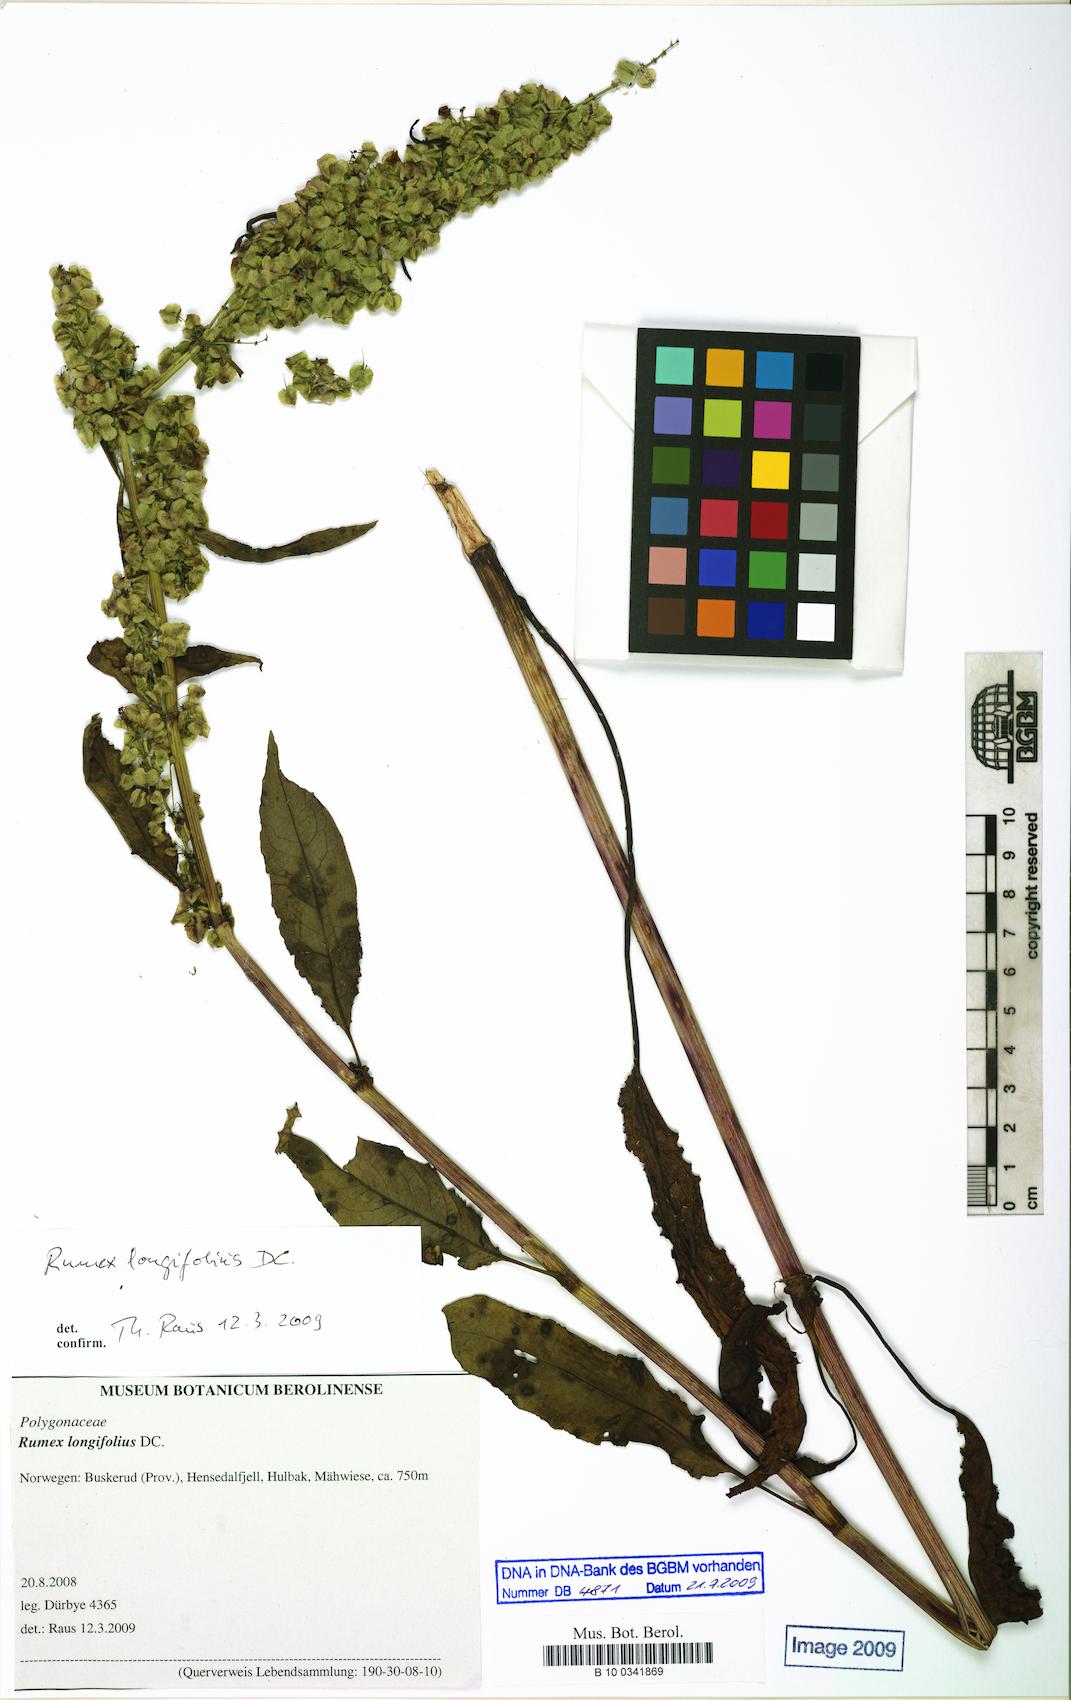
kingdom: Plantae
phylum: Tracheophyta
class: Magnoliopsida
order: Caryophyllales
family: Polygonaceae
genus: Rumex
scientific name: Rumex longifolius
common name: Dooryard dock
